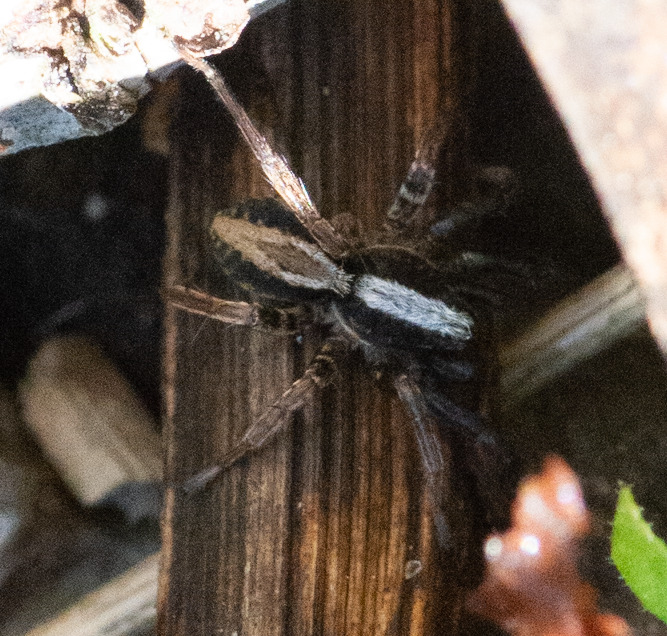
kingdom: Animalia
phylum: Arthropoda
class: Arachnida
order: Araneae
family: Lycosidae
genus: Xerolycosa
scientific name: Xerolycosa nemoralis
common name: Skov-sandjæger
